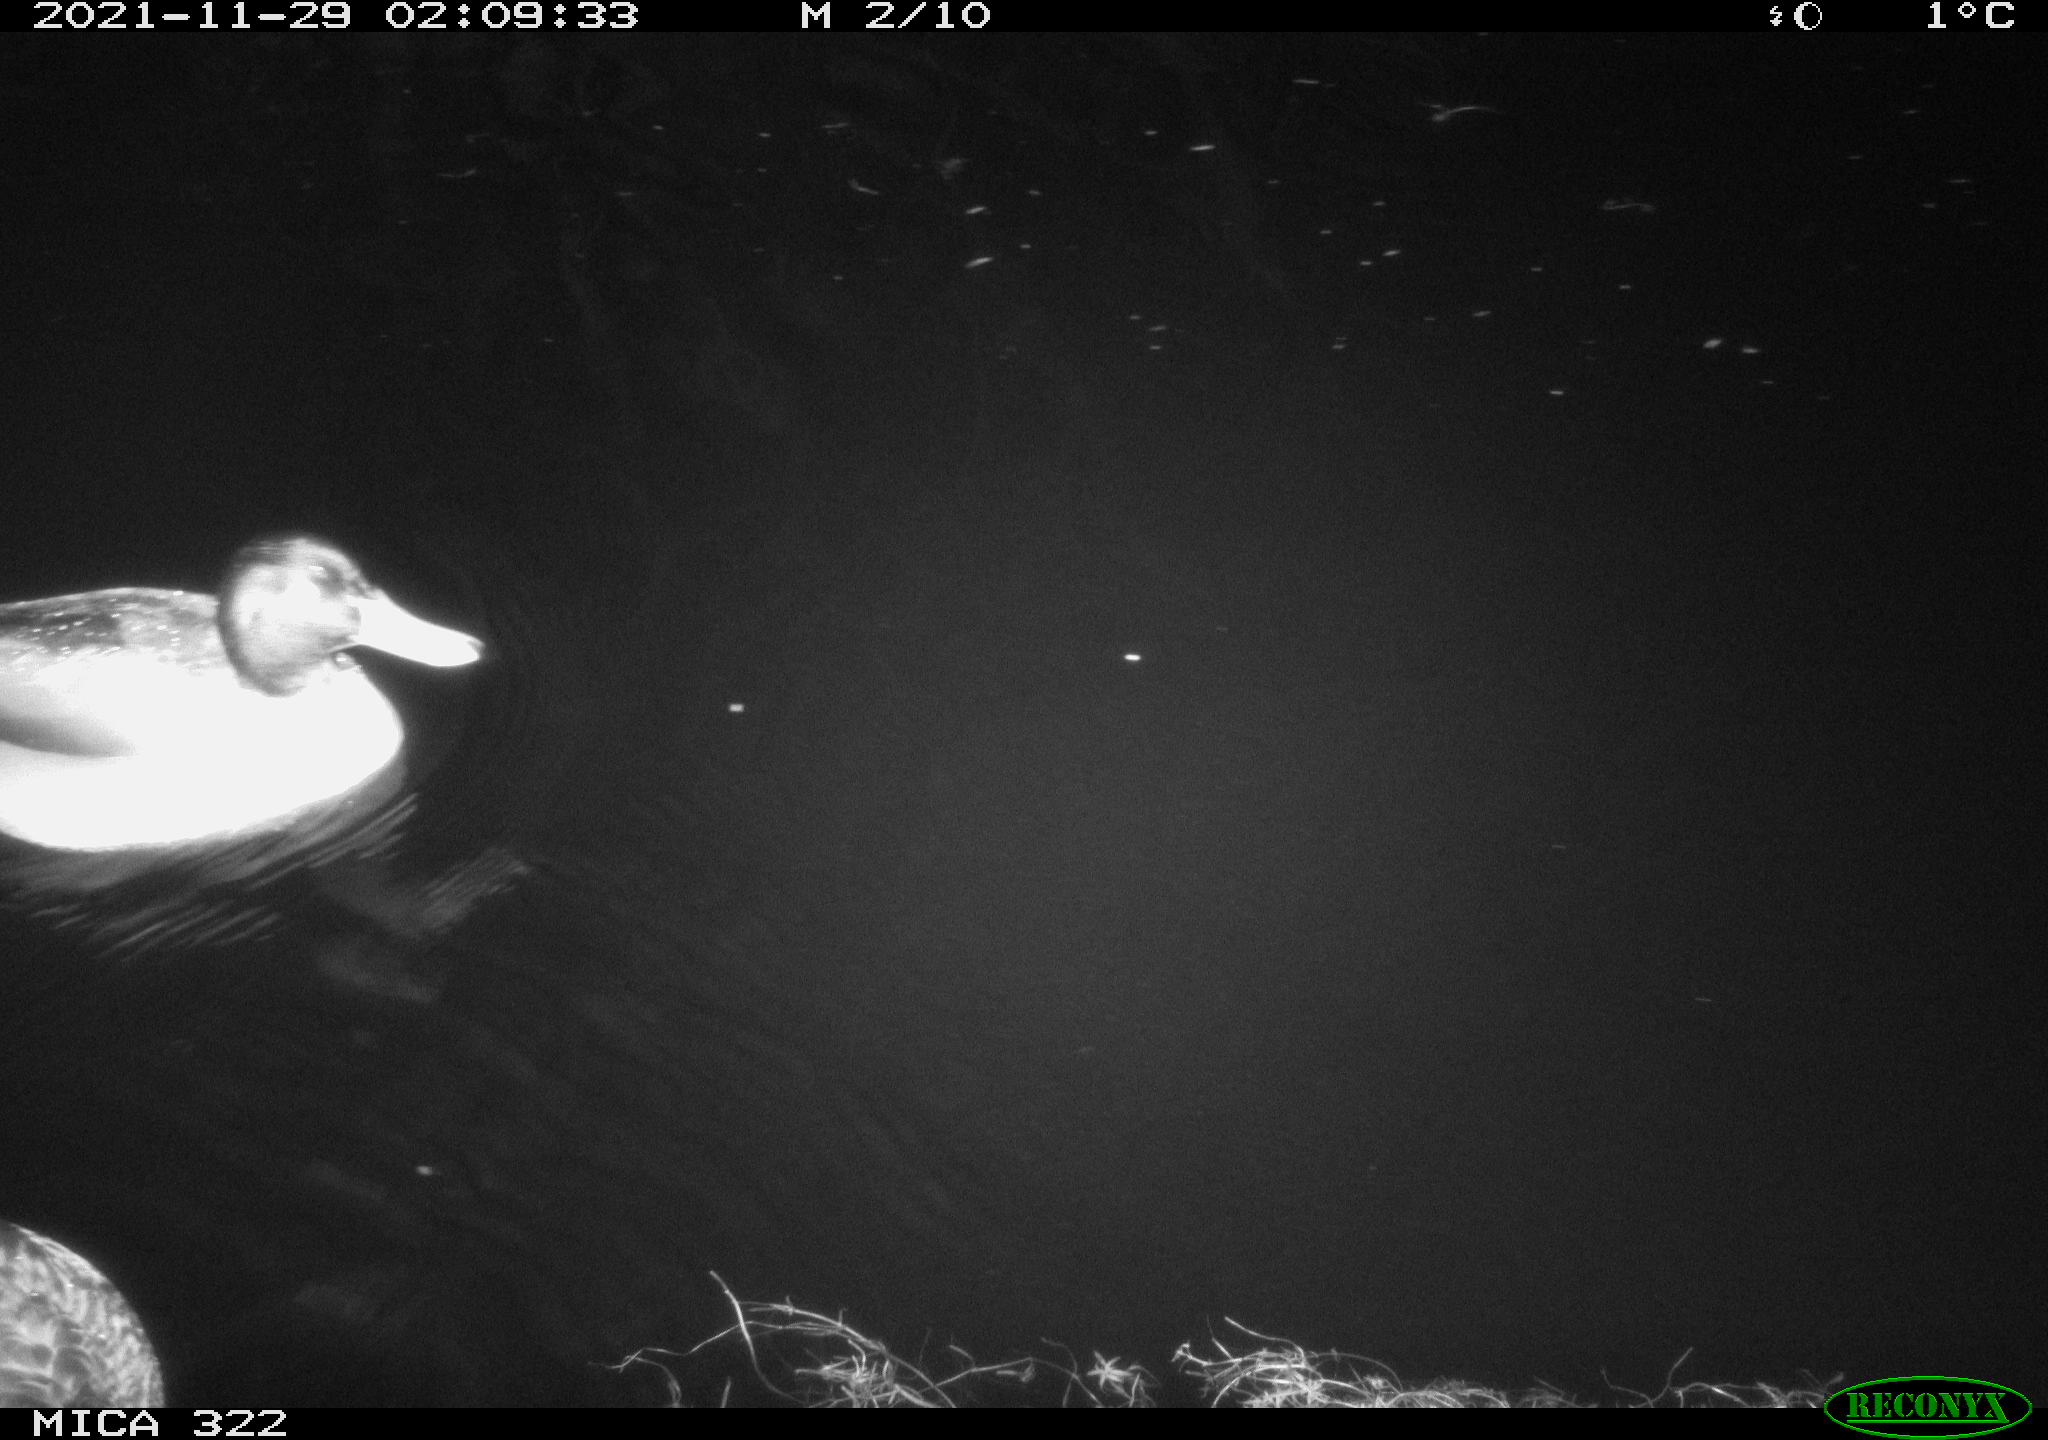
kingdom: Animalia
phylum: Chordata
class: Aves
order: Anseriformes
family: Anatidae
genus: Anas
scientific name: Anas platyrhynchos
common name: Mallard
